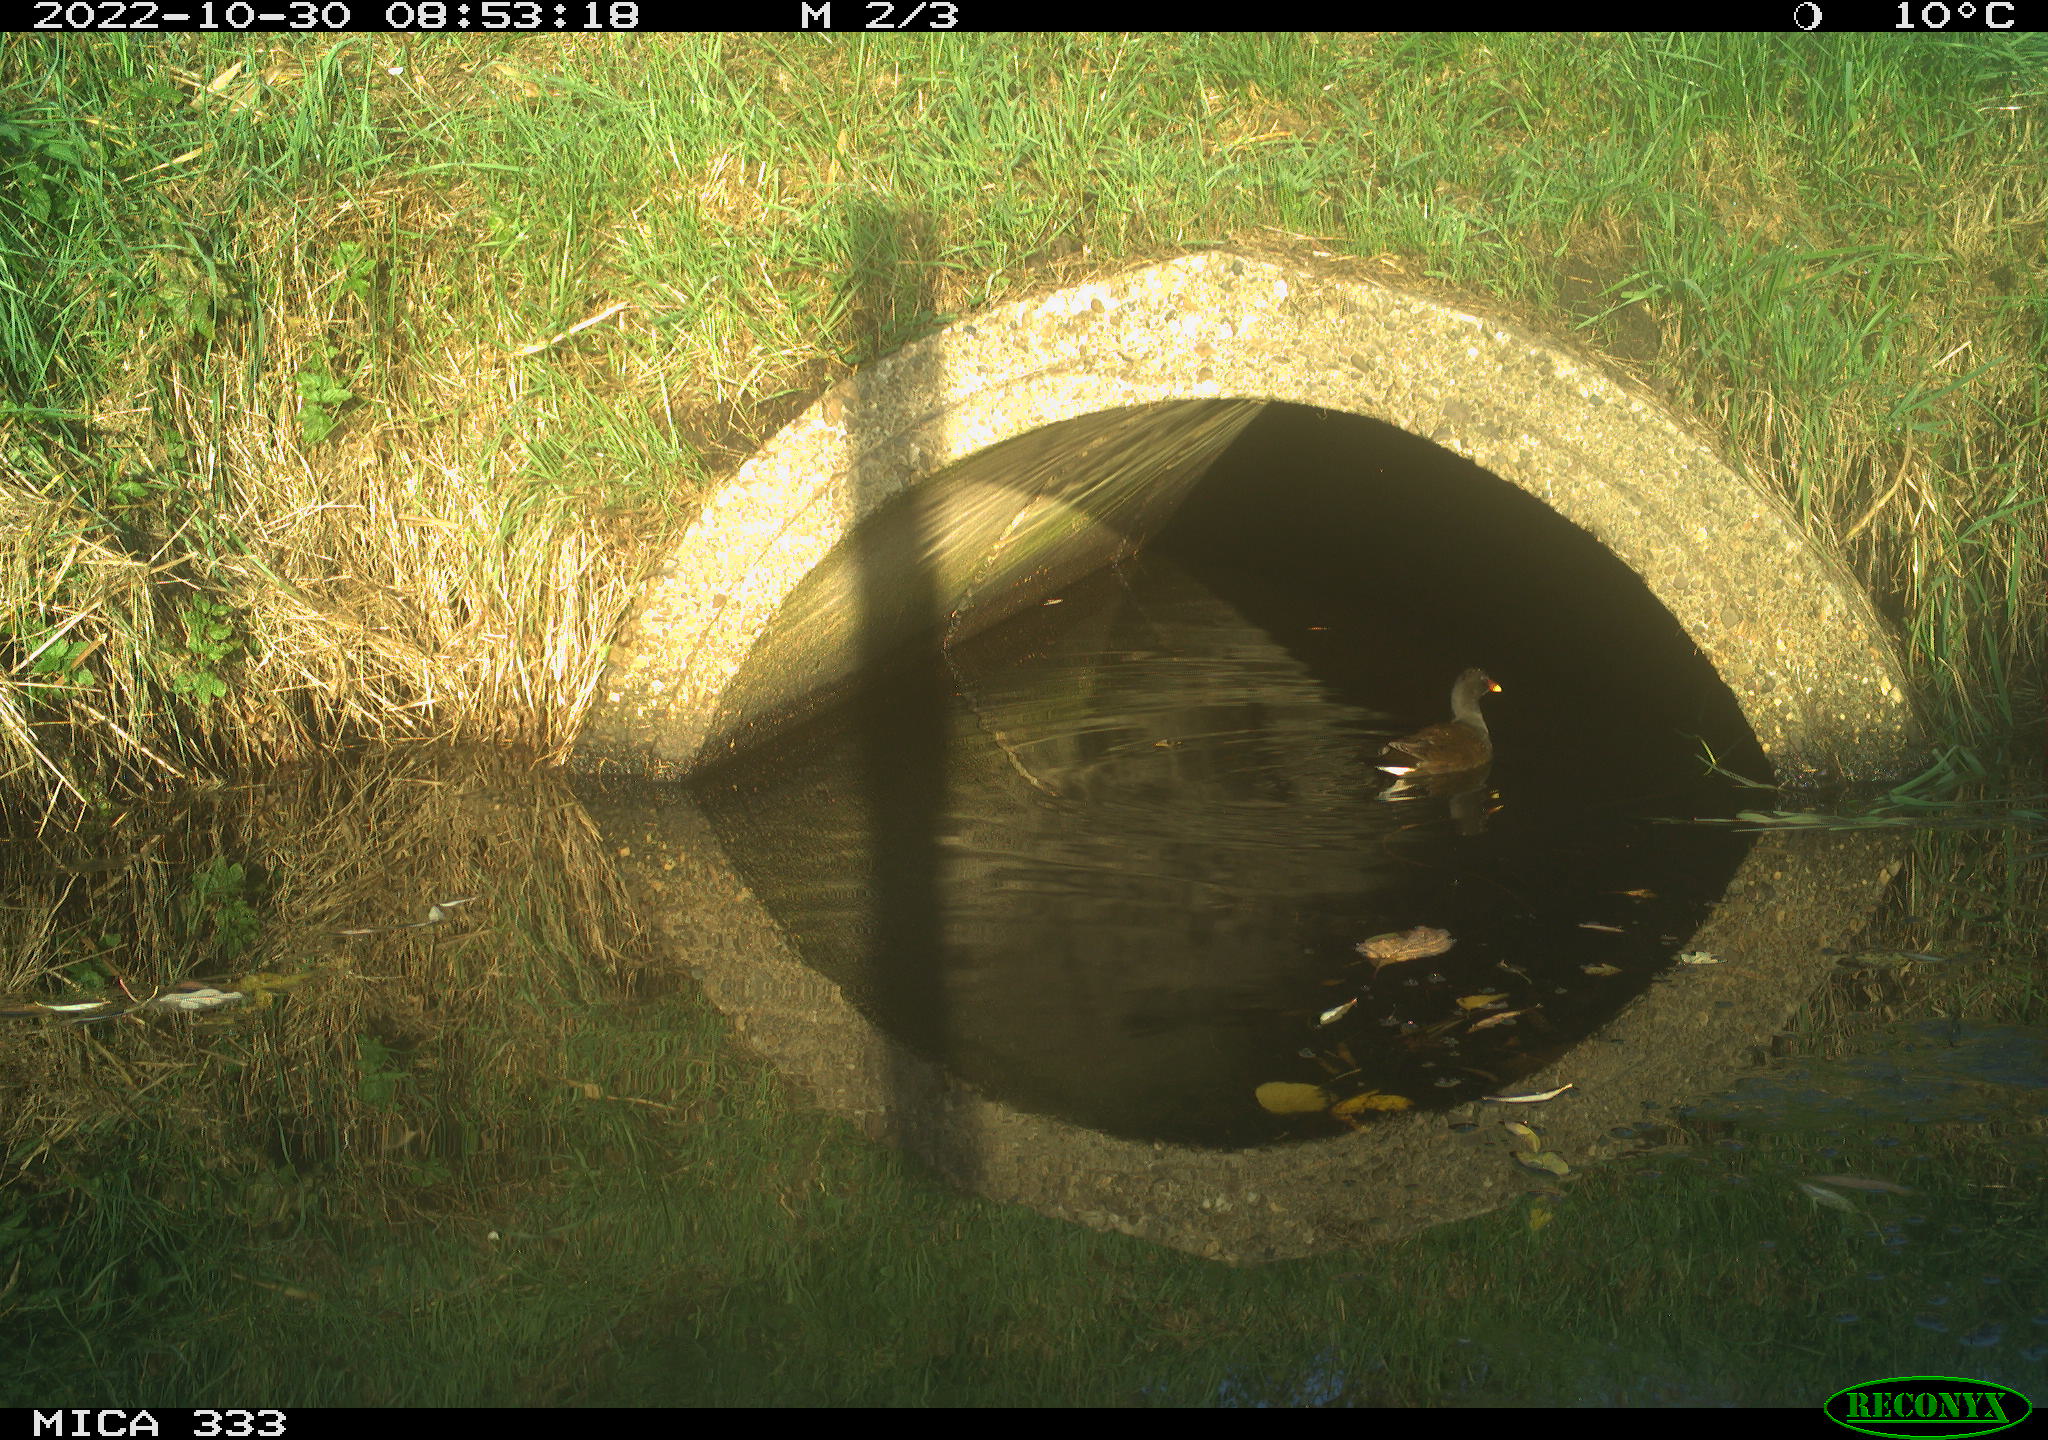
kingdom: Animalia
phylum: Chordata
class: Aves
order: Gruiformes
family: Rallidae
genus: Gallinula
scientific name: Gallinula chloropus
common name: Common moorhen
